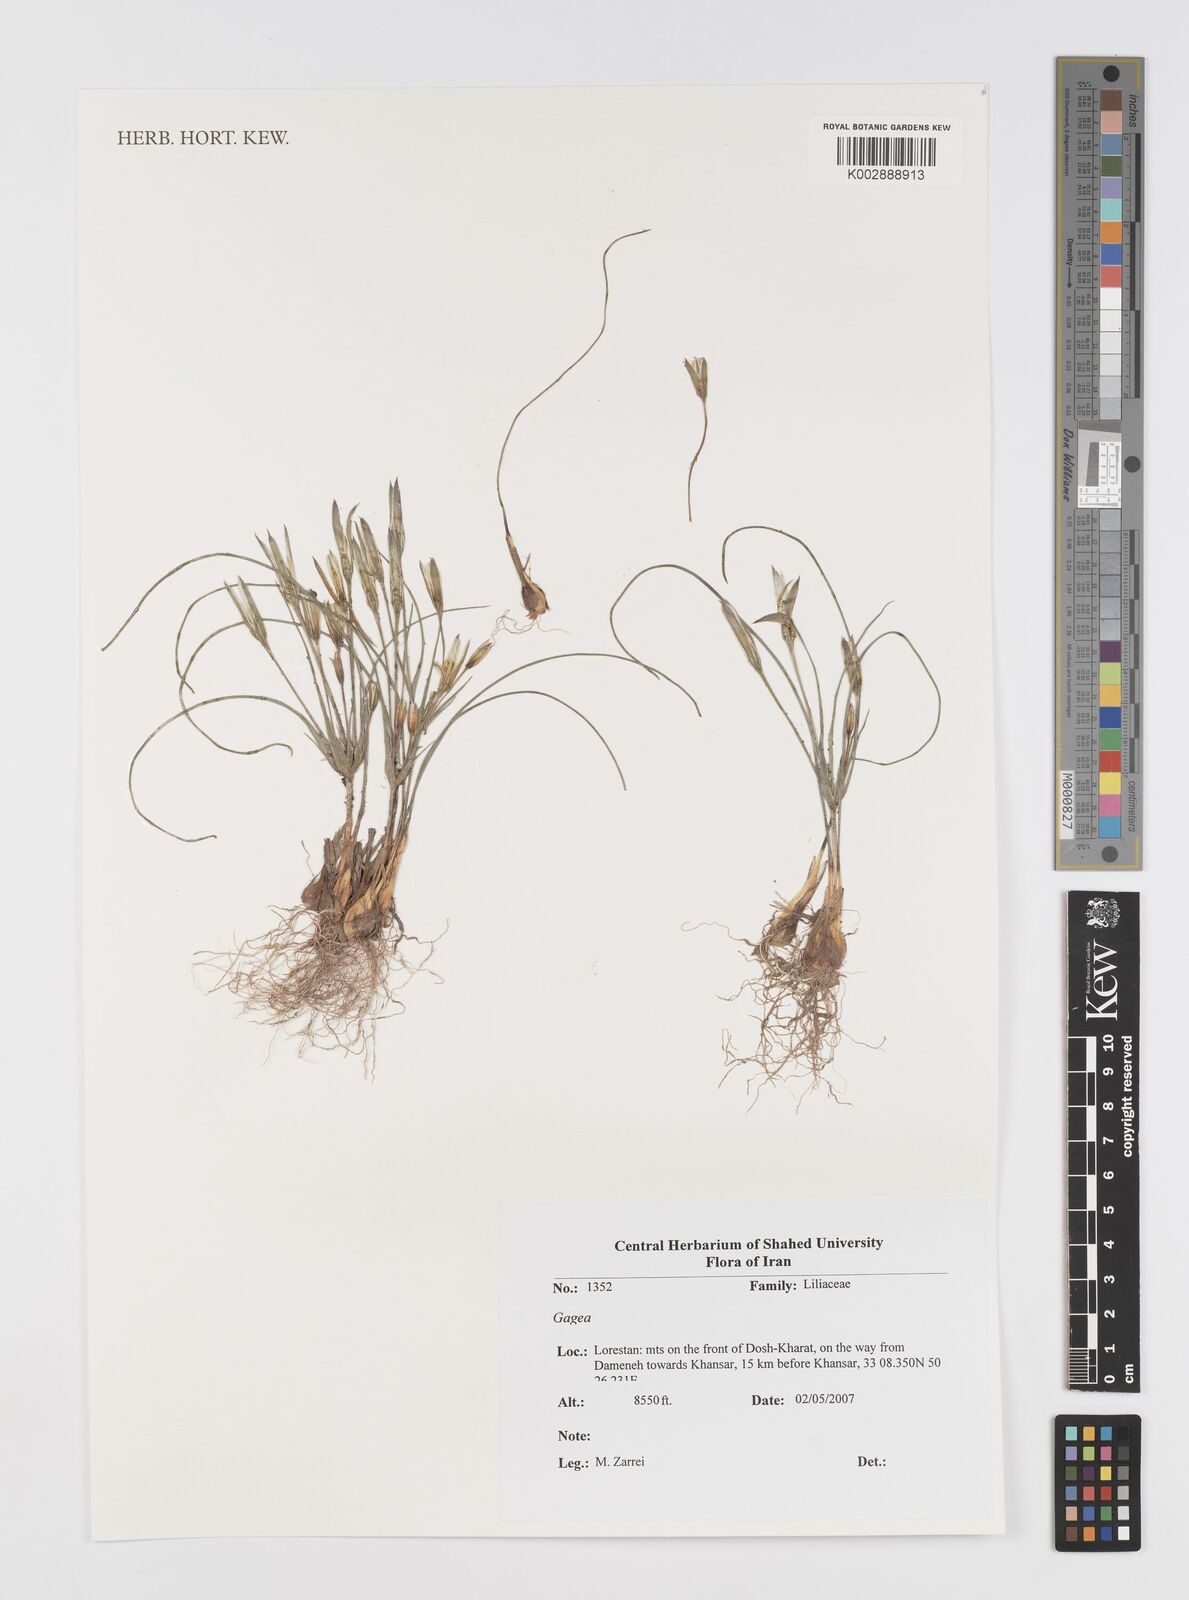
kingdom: Plantae
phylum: Tracheophyta
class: Liliopsida
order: Liliales
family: Liliaceae
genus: Gagea
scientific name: Gagea
